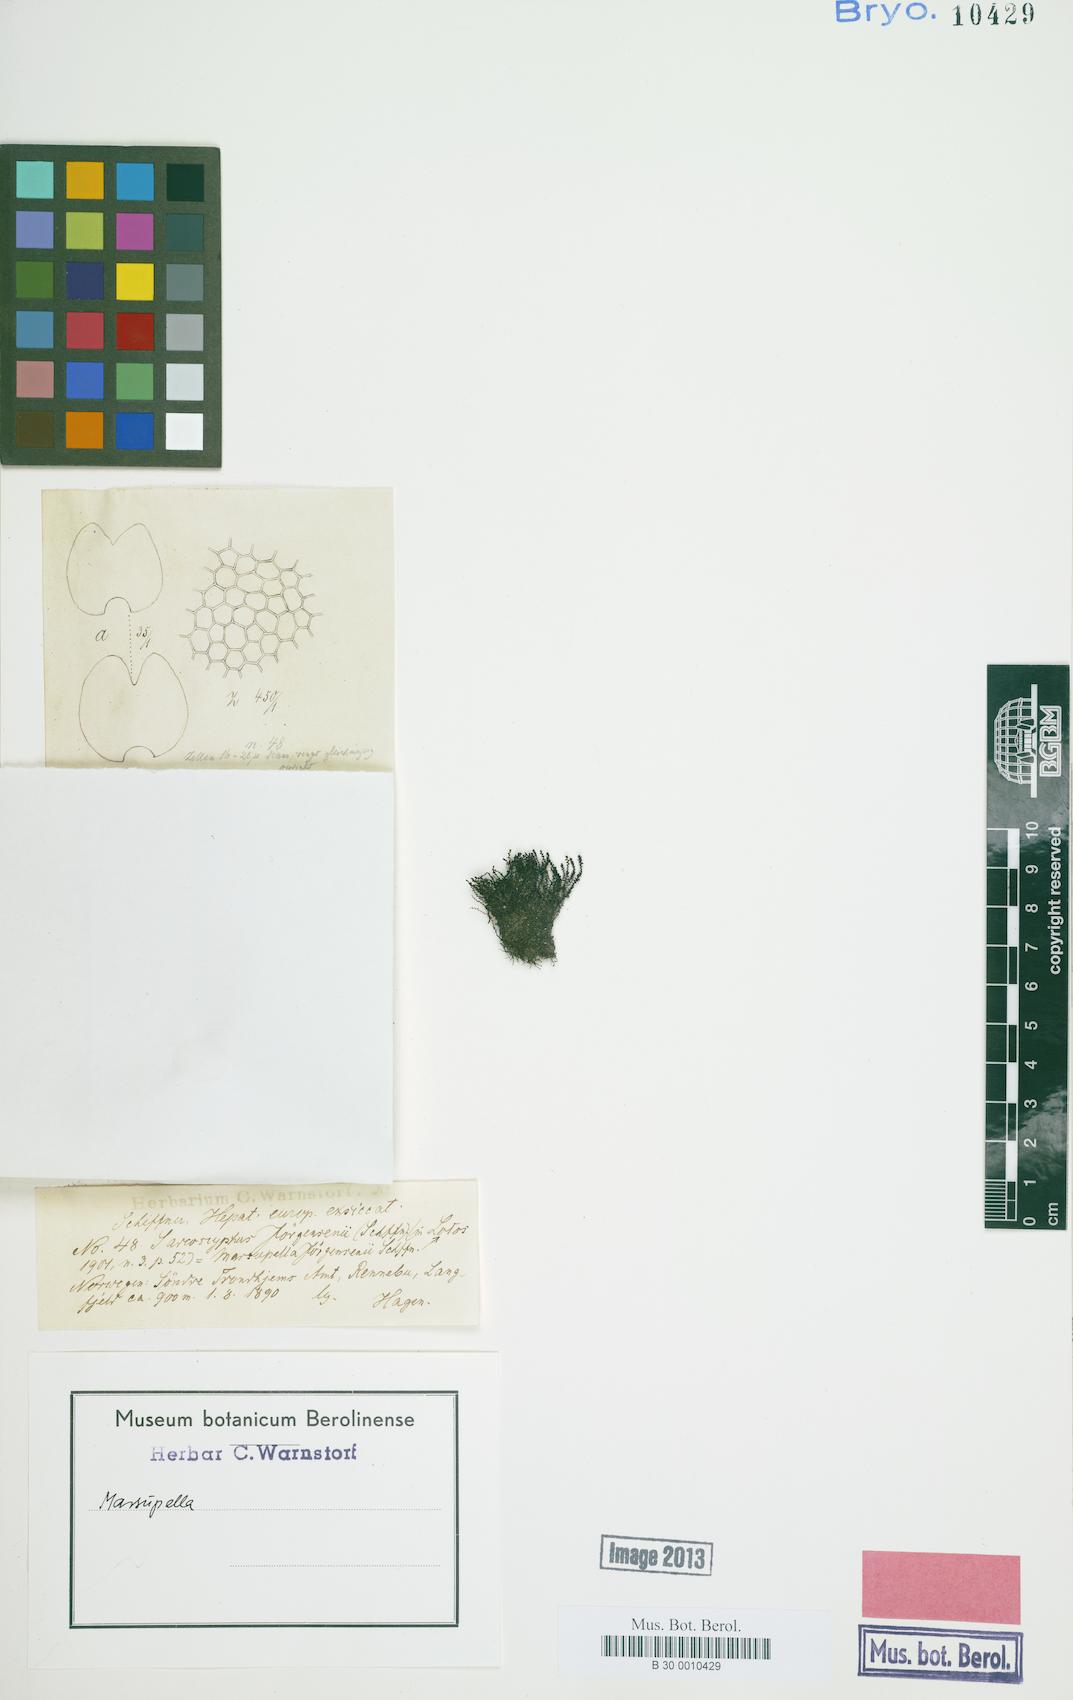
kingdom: Plantae
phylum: Marchantiophyta
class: Jungermanniopsida
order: Jungermanniales
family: Gymnomitriaceae
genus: Marsupella
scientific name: Marsupella
